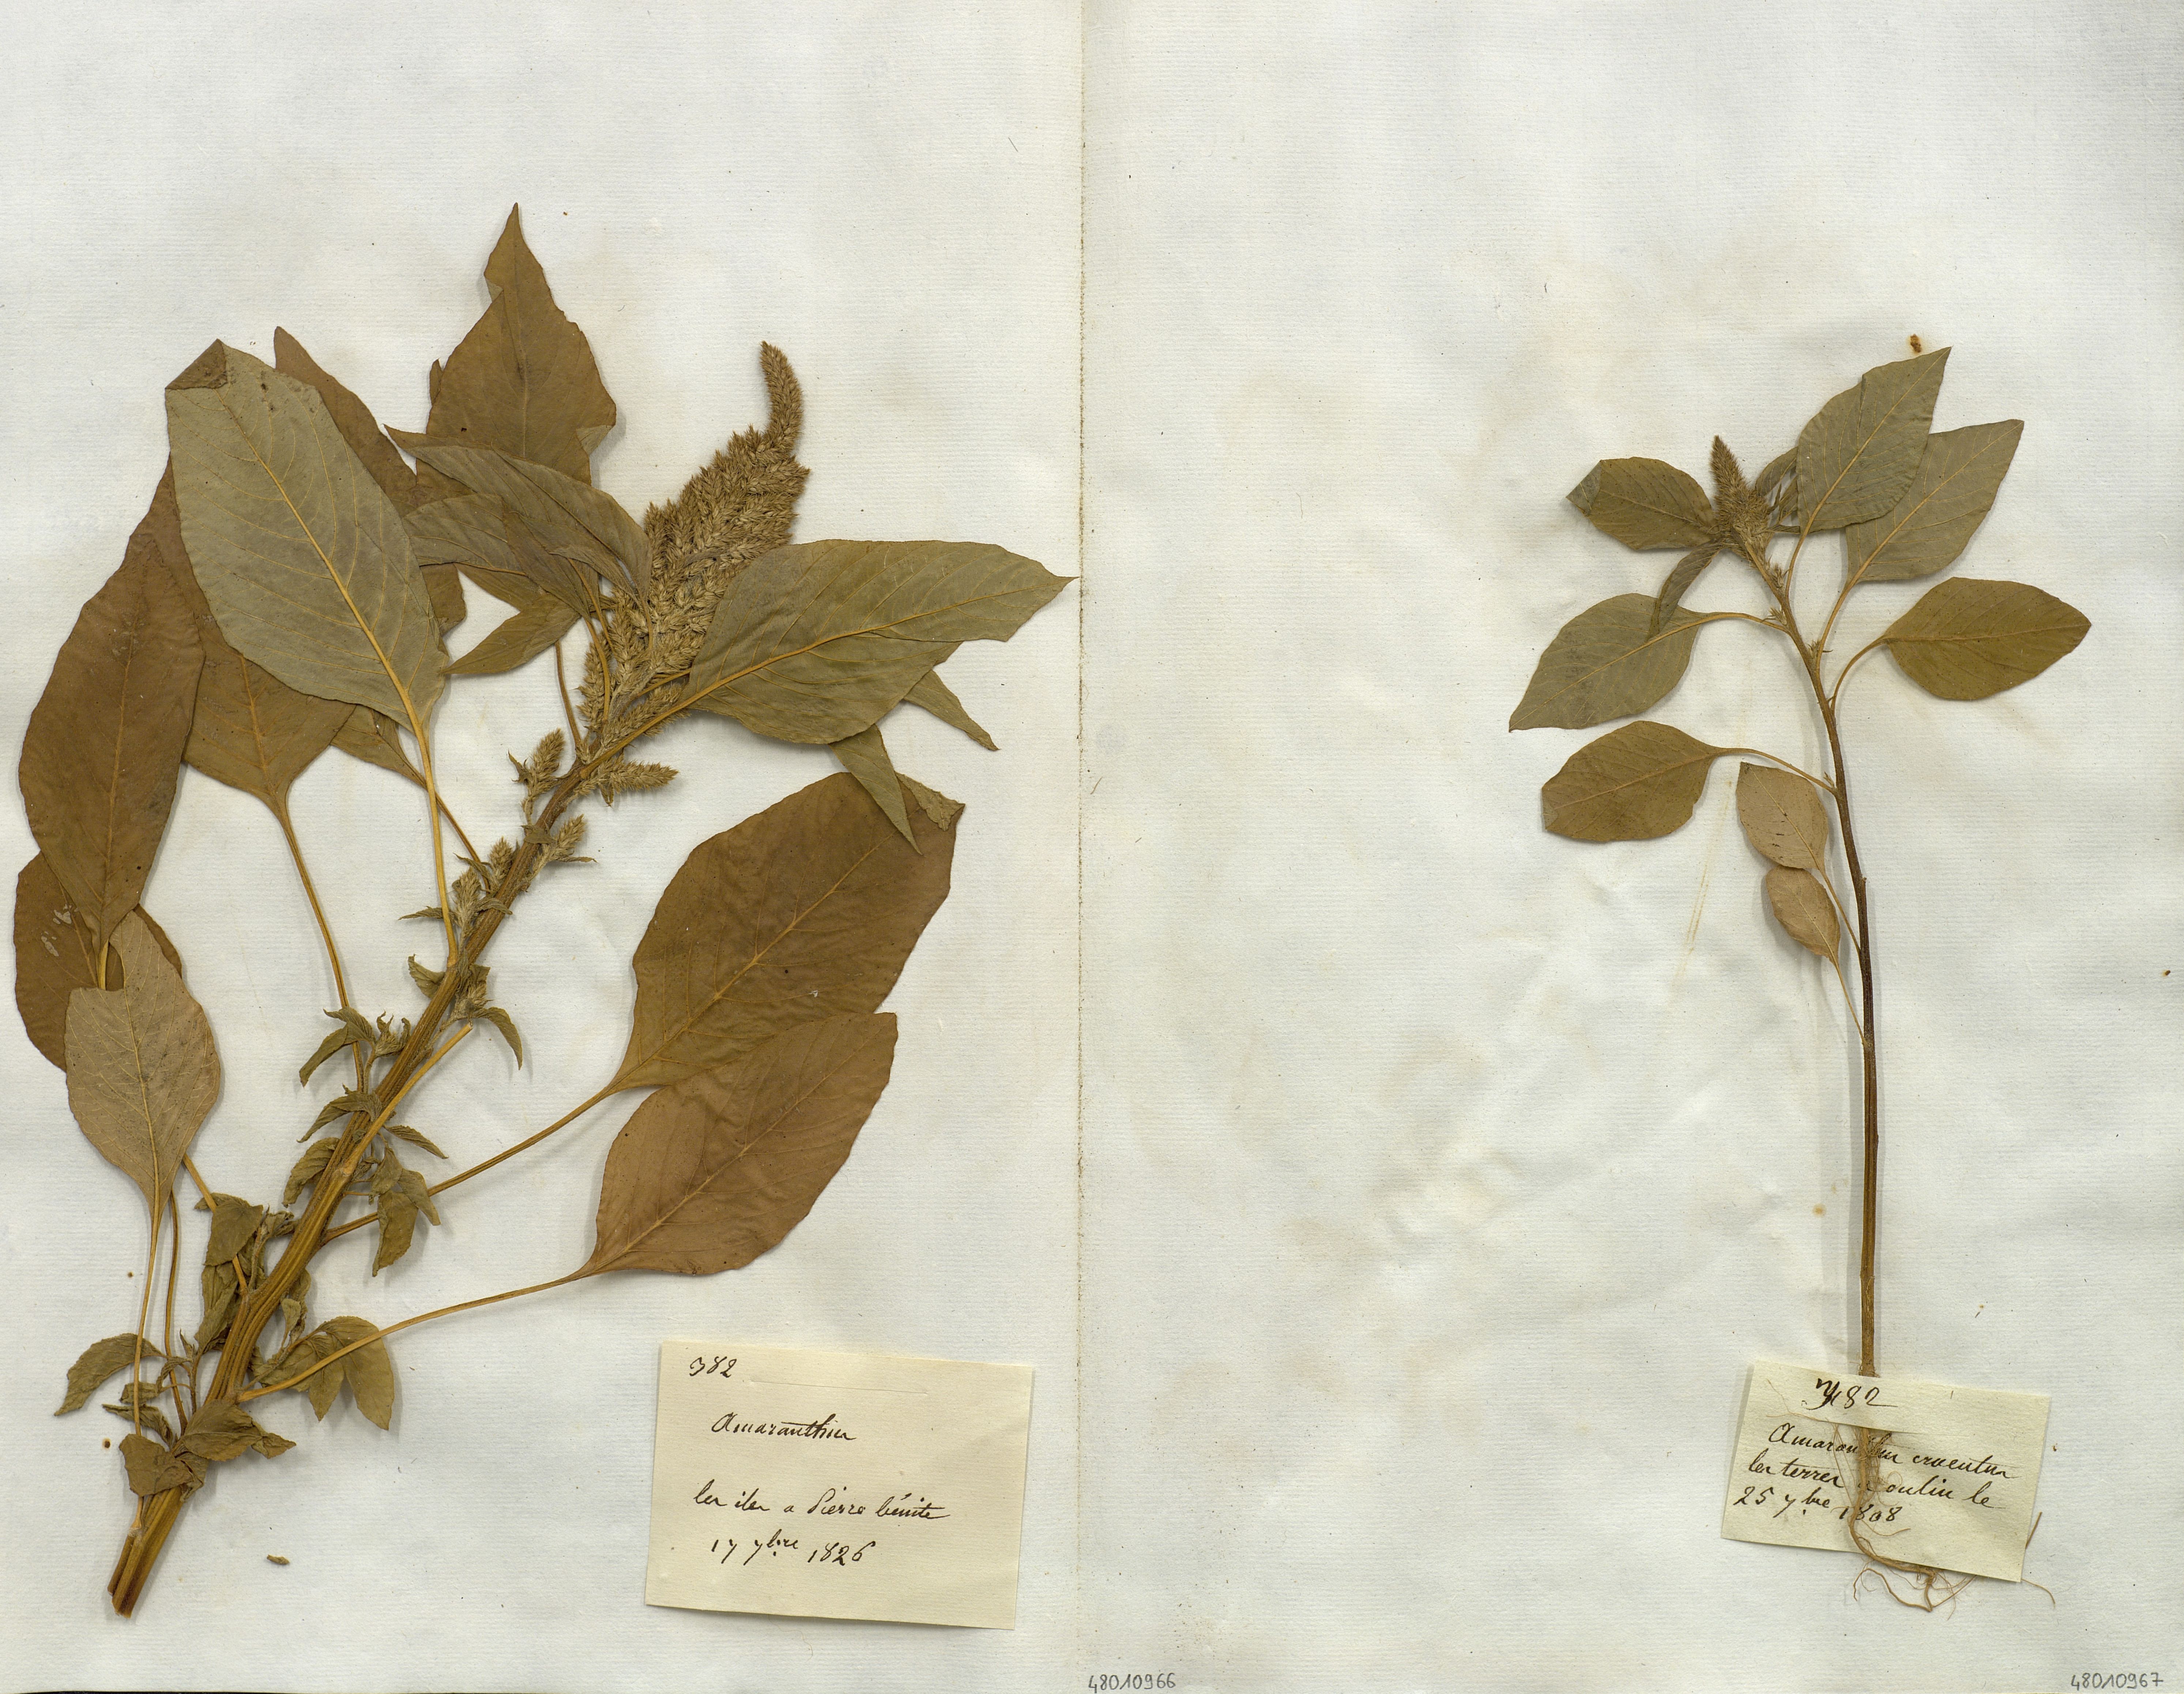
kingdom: Plantae
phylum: Tracheophyta
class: Magnoliopsida
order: Caryophyllales
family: Amaranthaceae
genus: Amaranthus
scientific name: Amaranthus cruentus
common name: Purple amaranth
